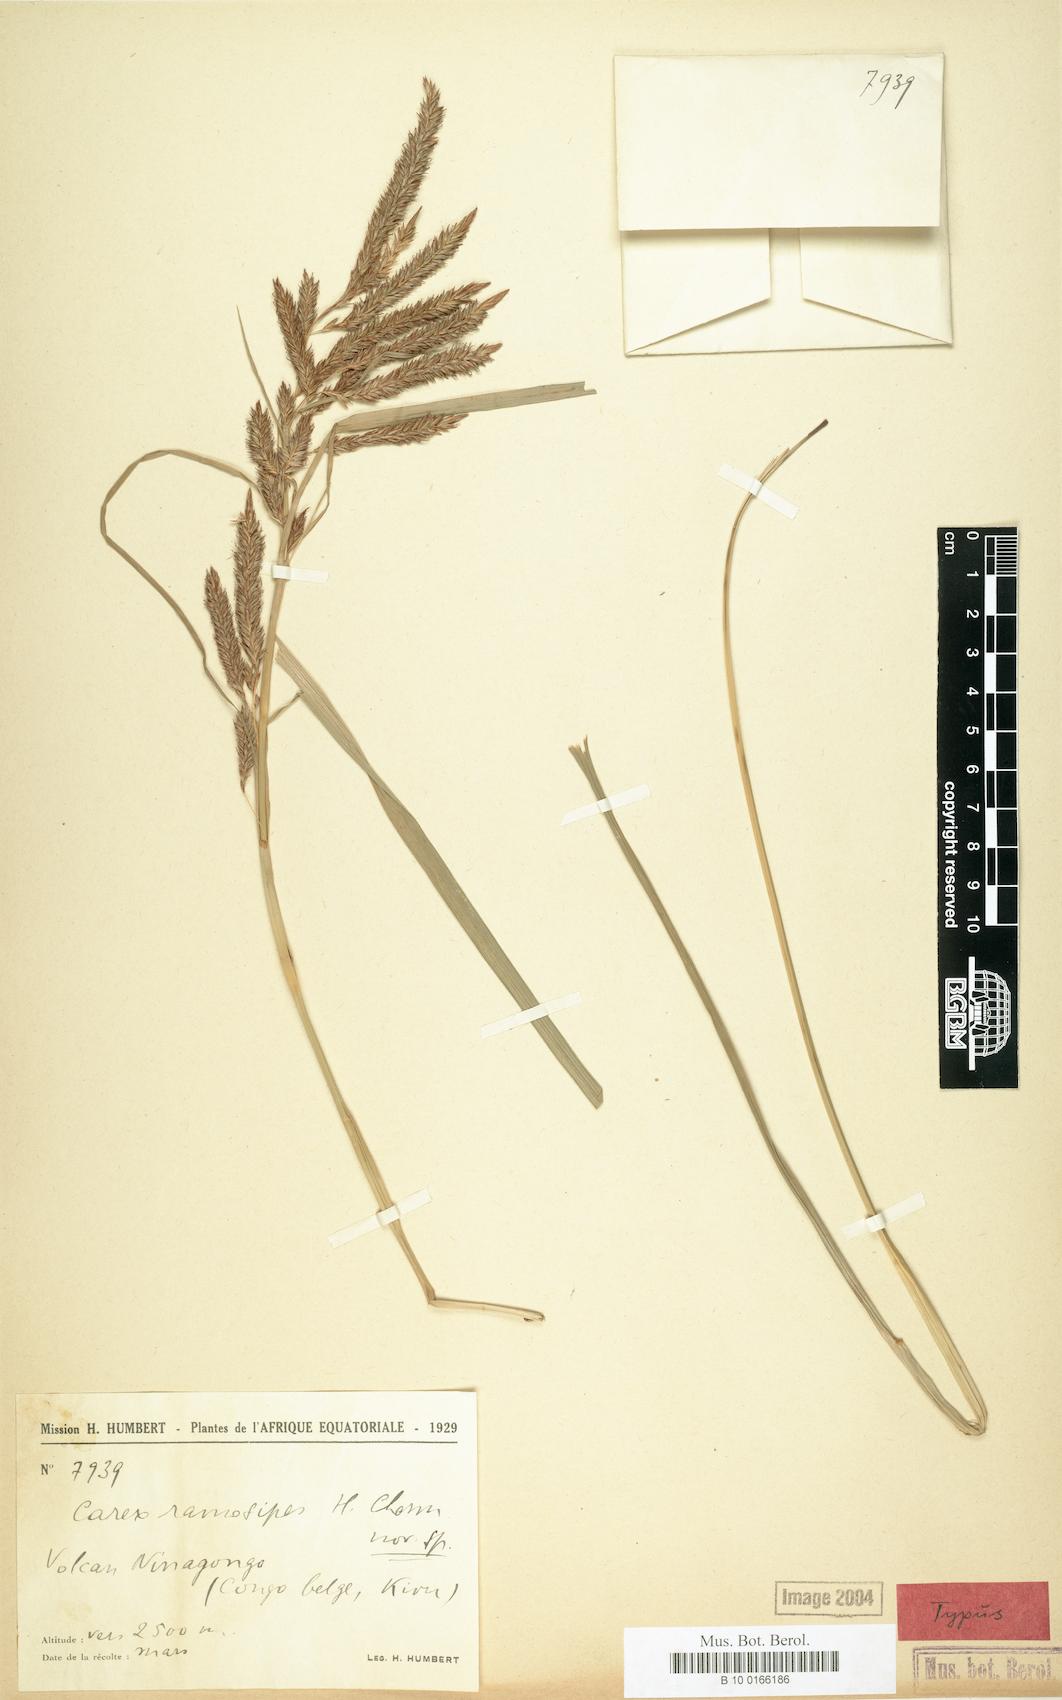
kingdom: Plantae
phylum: Tracheophyta
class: Liliopsida
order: Poales
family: Cyperaceae
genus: Carex
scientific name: Carex mildbraediana
